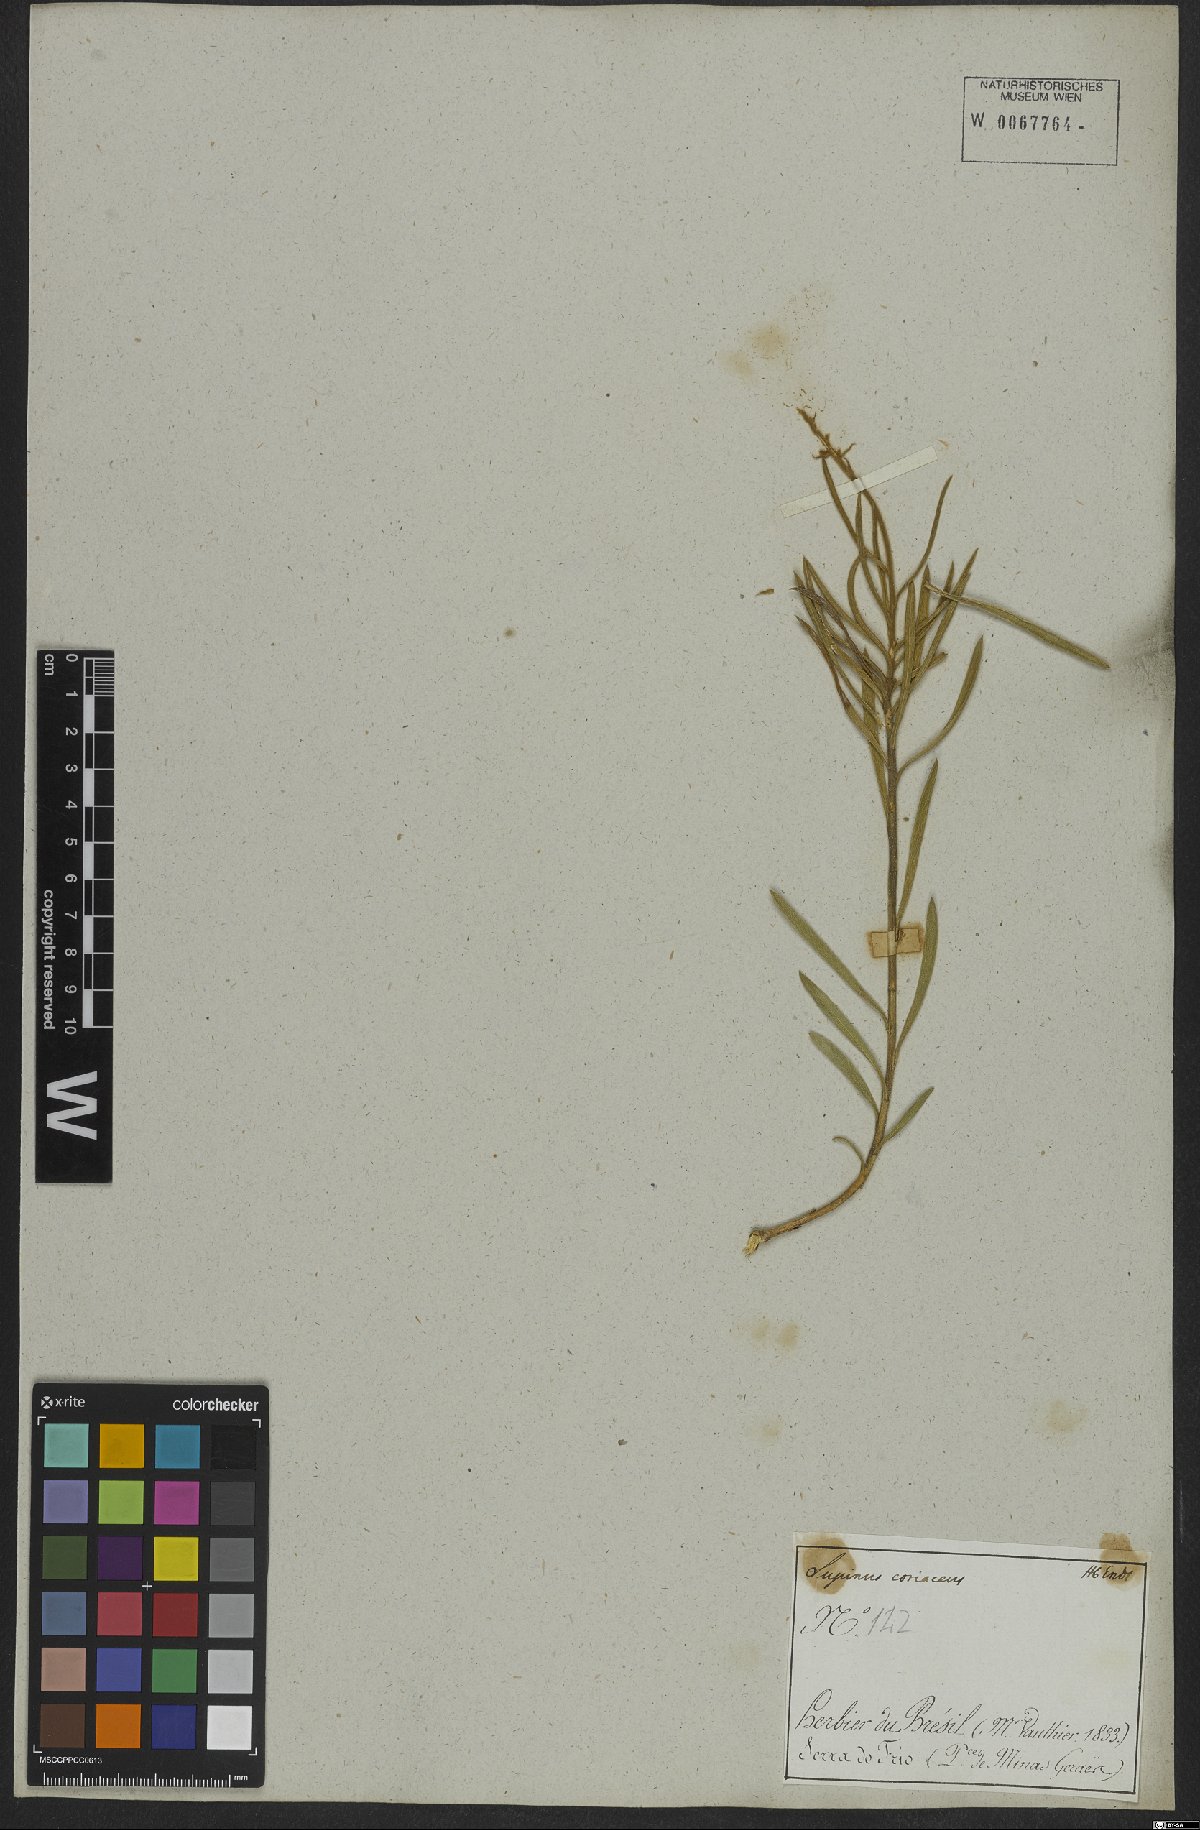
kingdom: Plantae
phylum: Tracheophyta
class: Magnoliopsida
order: Fabales
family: Fabaceae
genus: Lupinus
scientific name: Lupinus coriaceus
